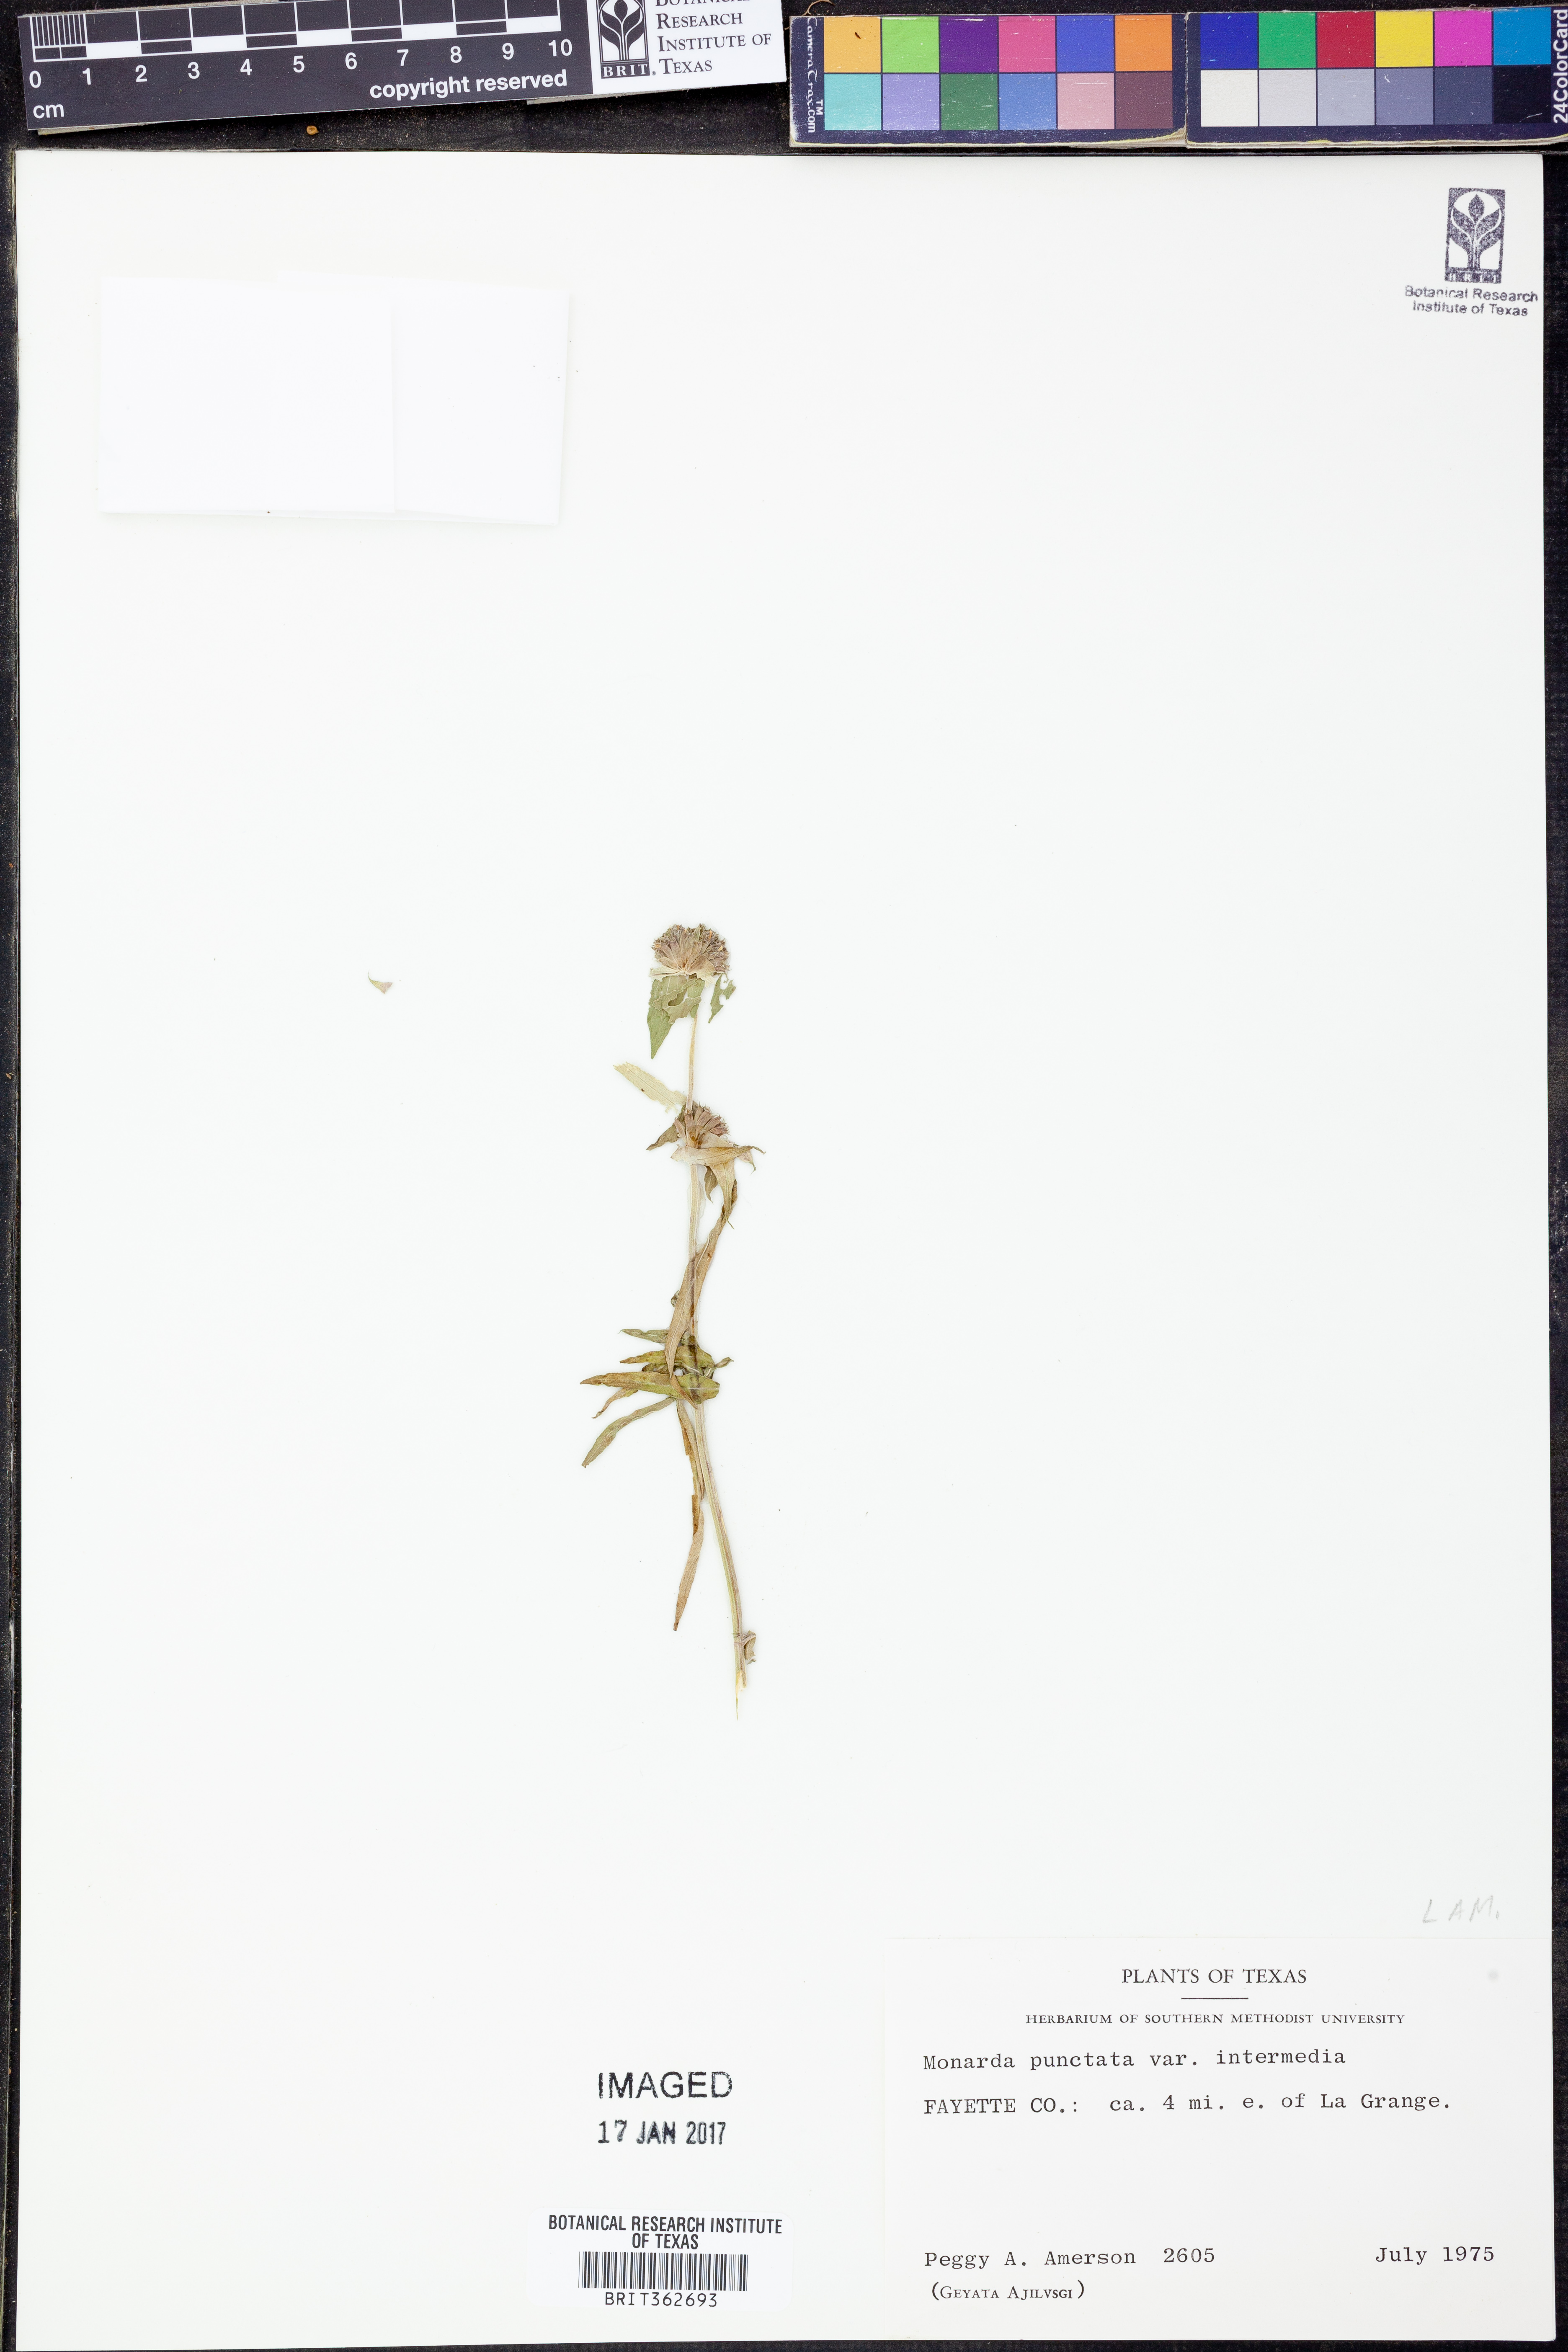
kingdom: Plantae
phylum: Tracheophyta
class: Magnoliopsida
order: Lamiales
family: Lamiaceae
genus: Monarda
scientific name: Monarda punctata
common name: Dotted monarda
